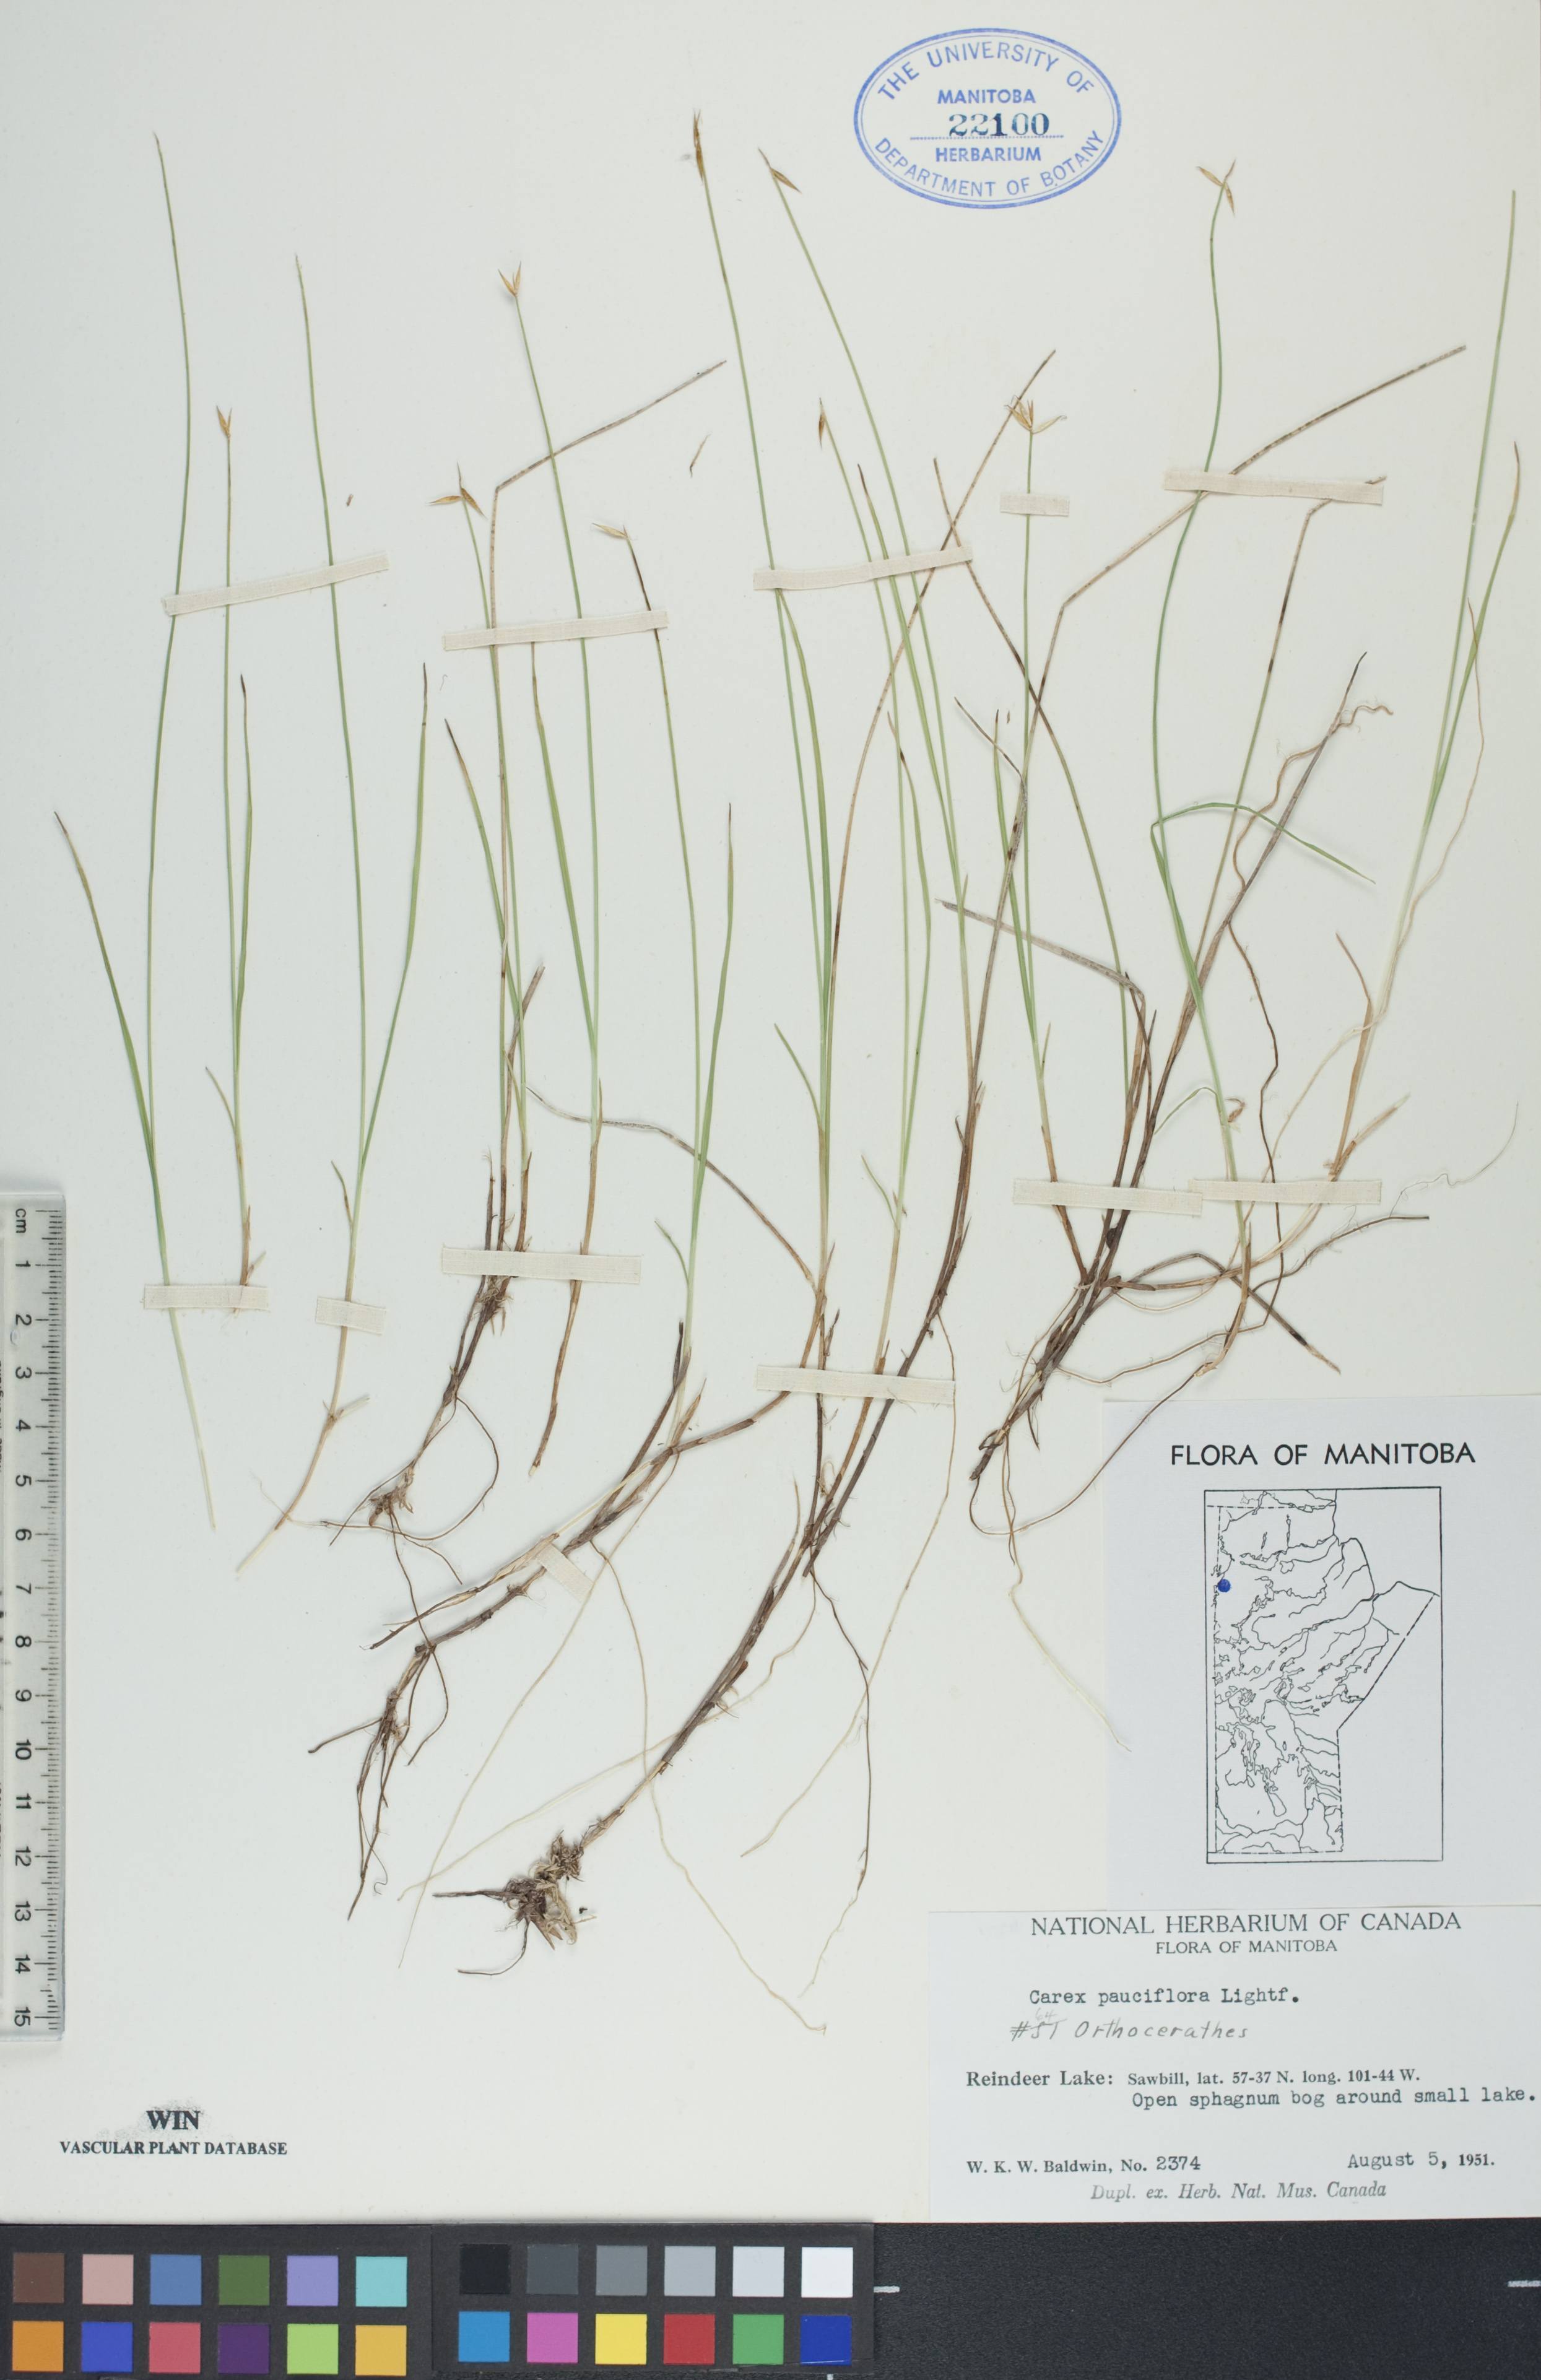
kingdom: Plantae
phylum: Tracheophyta
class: Liliopsida
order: Poales
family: Cyperaceae
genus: Carex
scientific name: Carex pauciflora
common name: Few-flowered sedge
